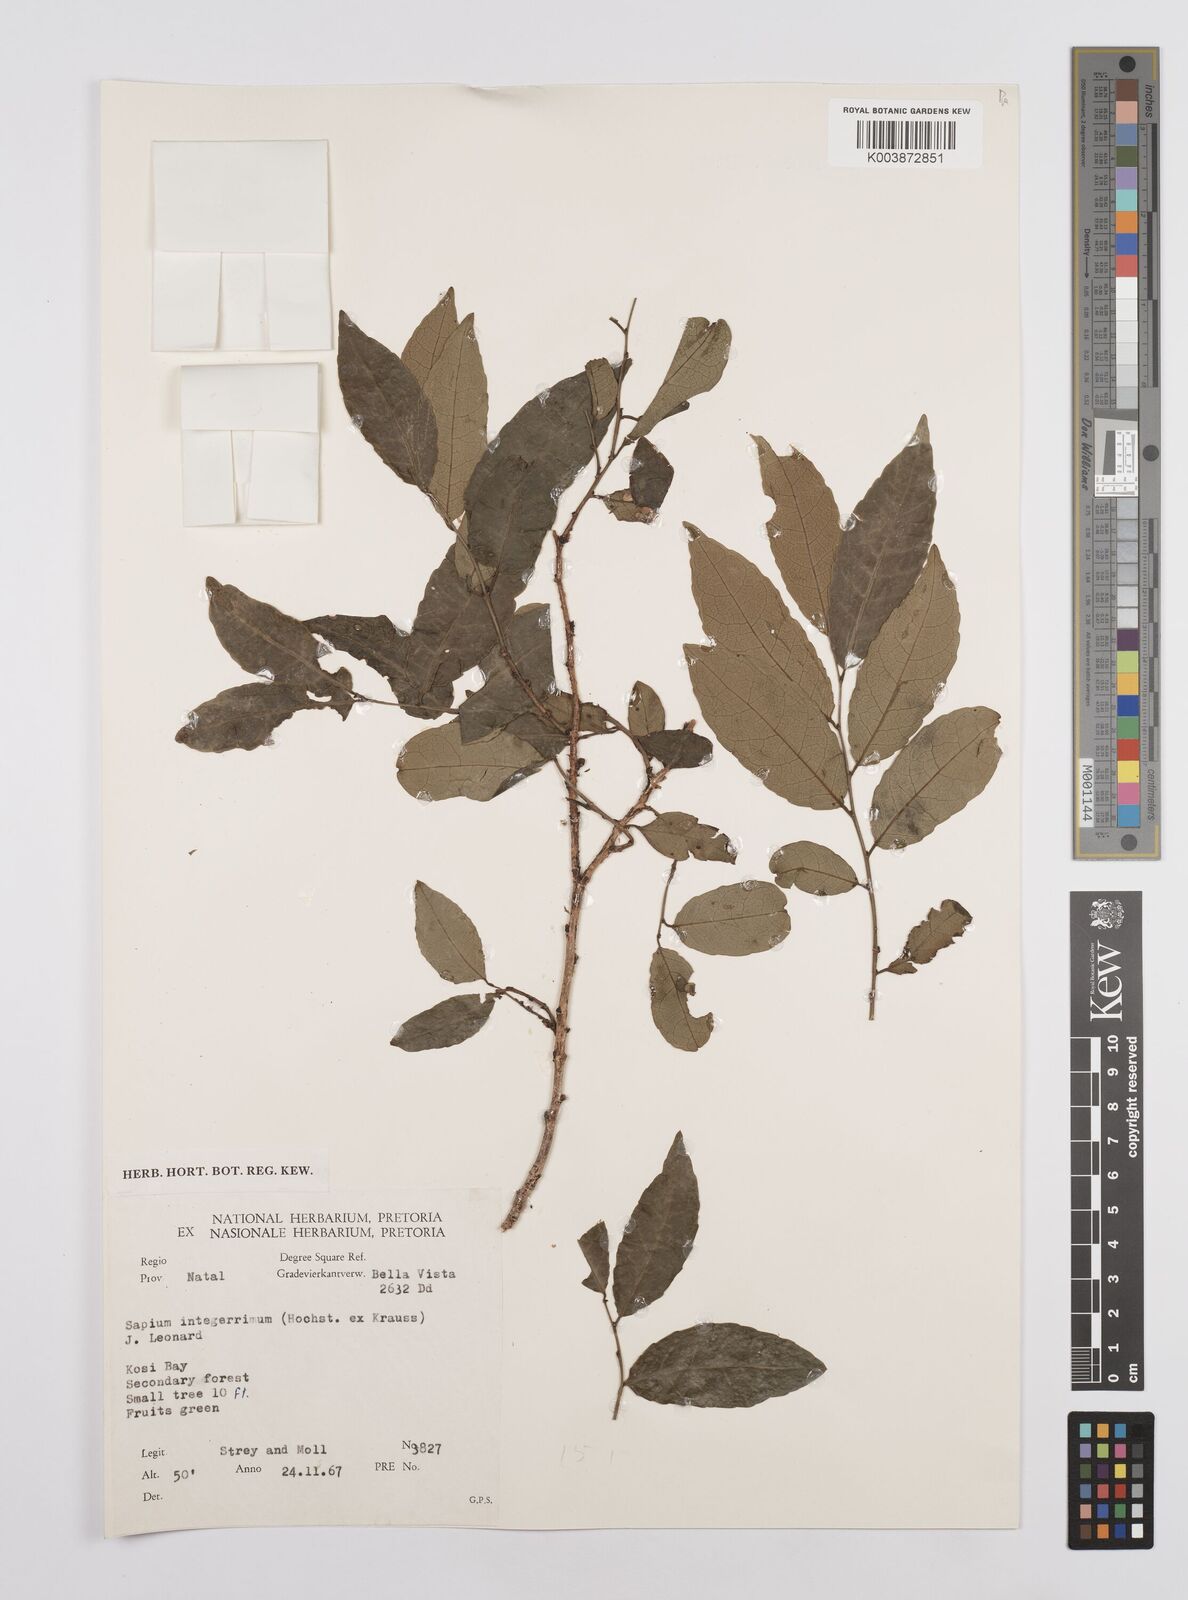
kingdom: Plantae
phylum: Tracheophyta
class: Magnoliopsida
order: Malpighiales
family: Euphorbiaceae
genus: Sclerocroton
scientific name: Sclerocroton integerrimus
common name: Duiker berry
